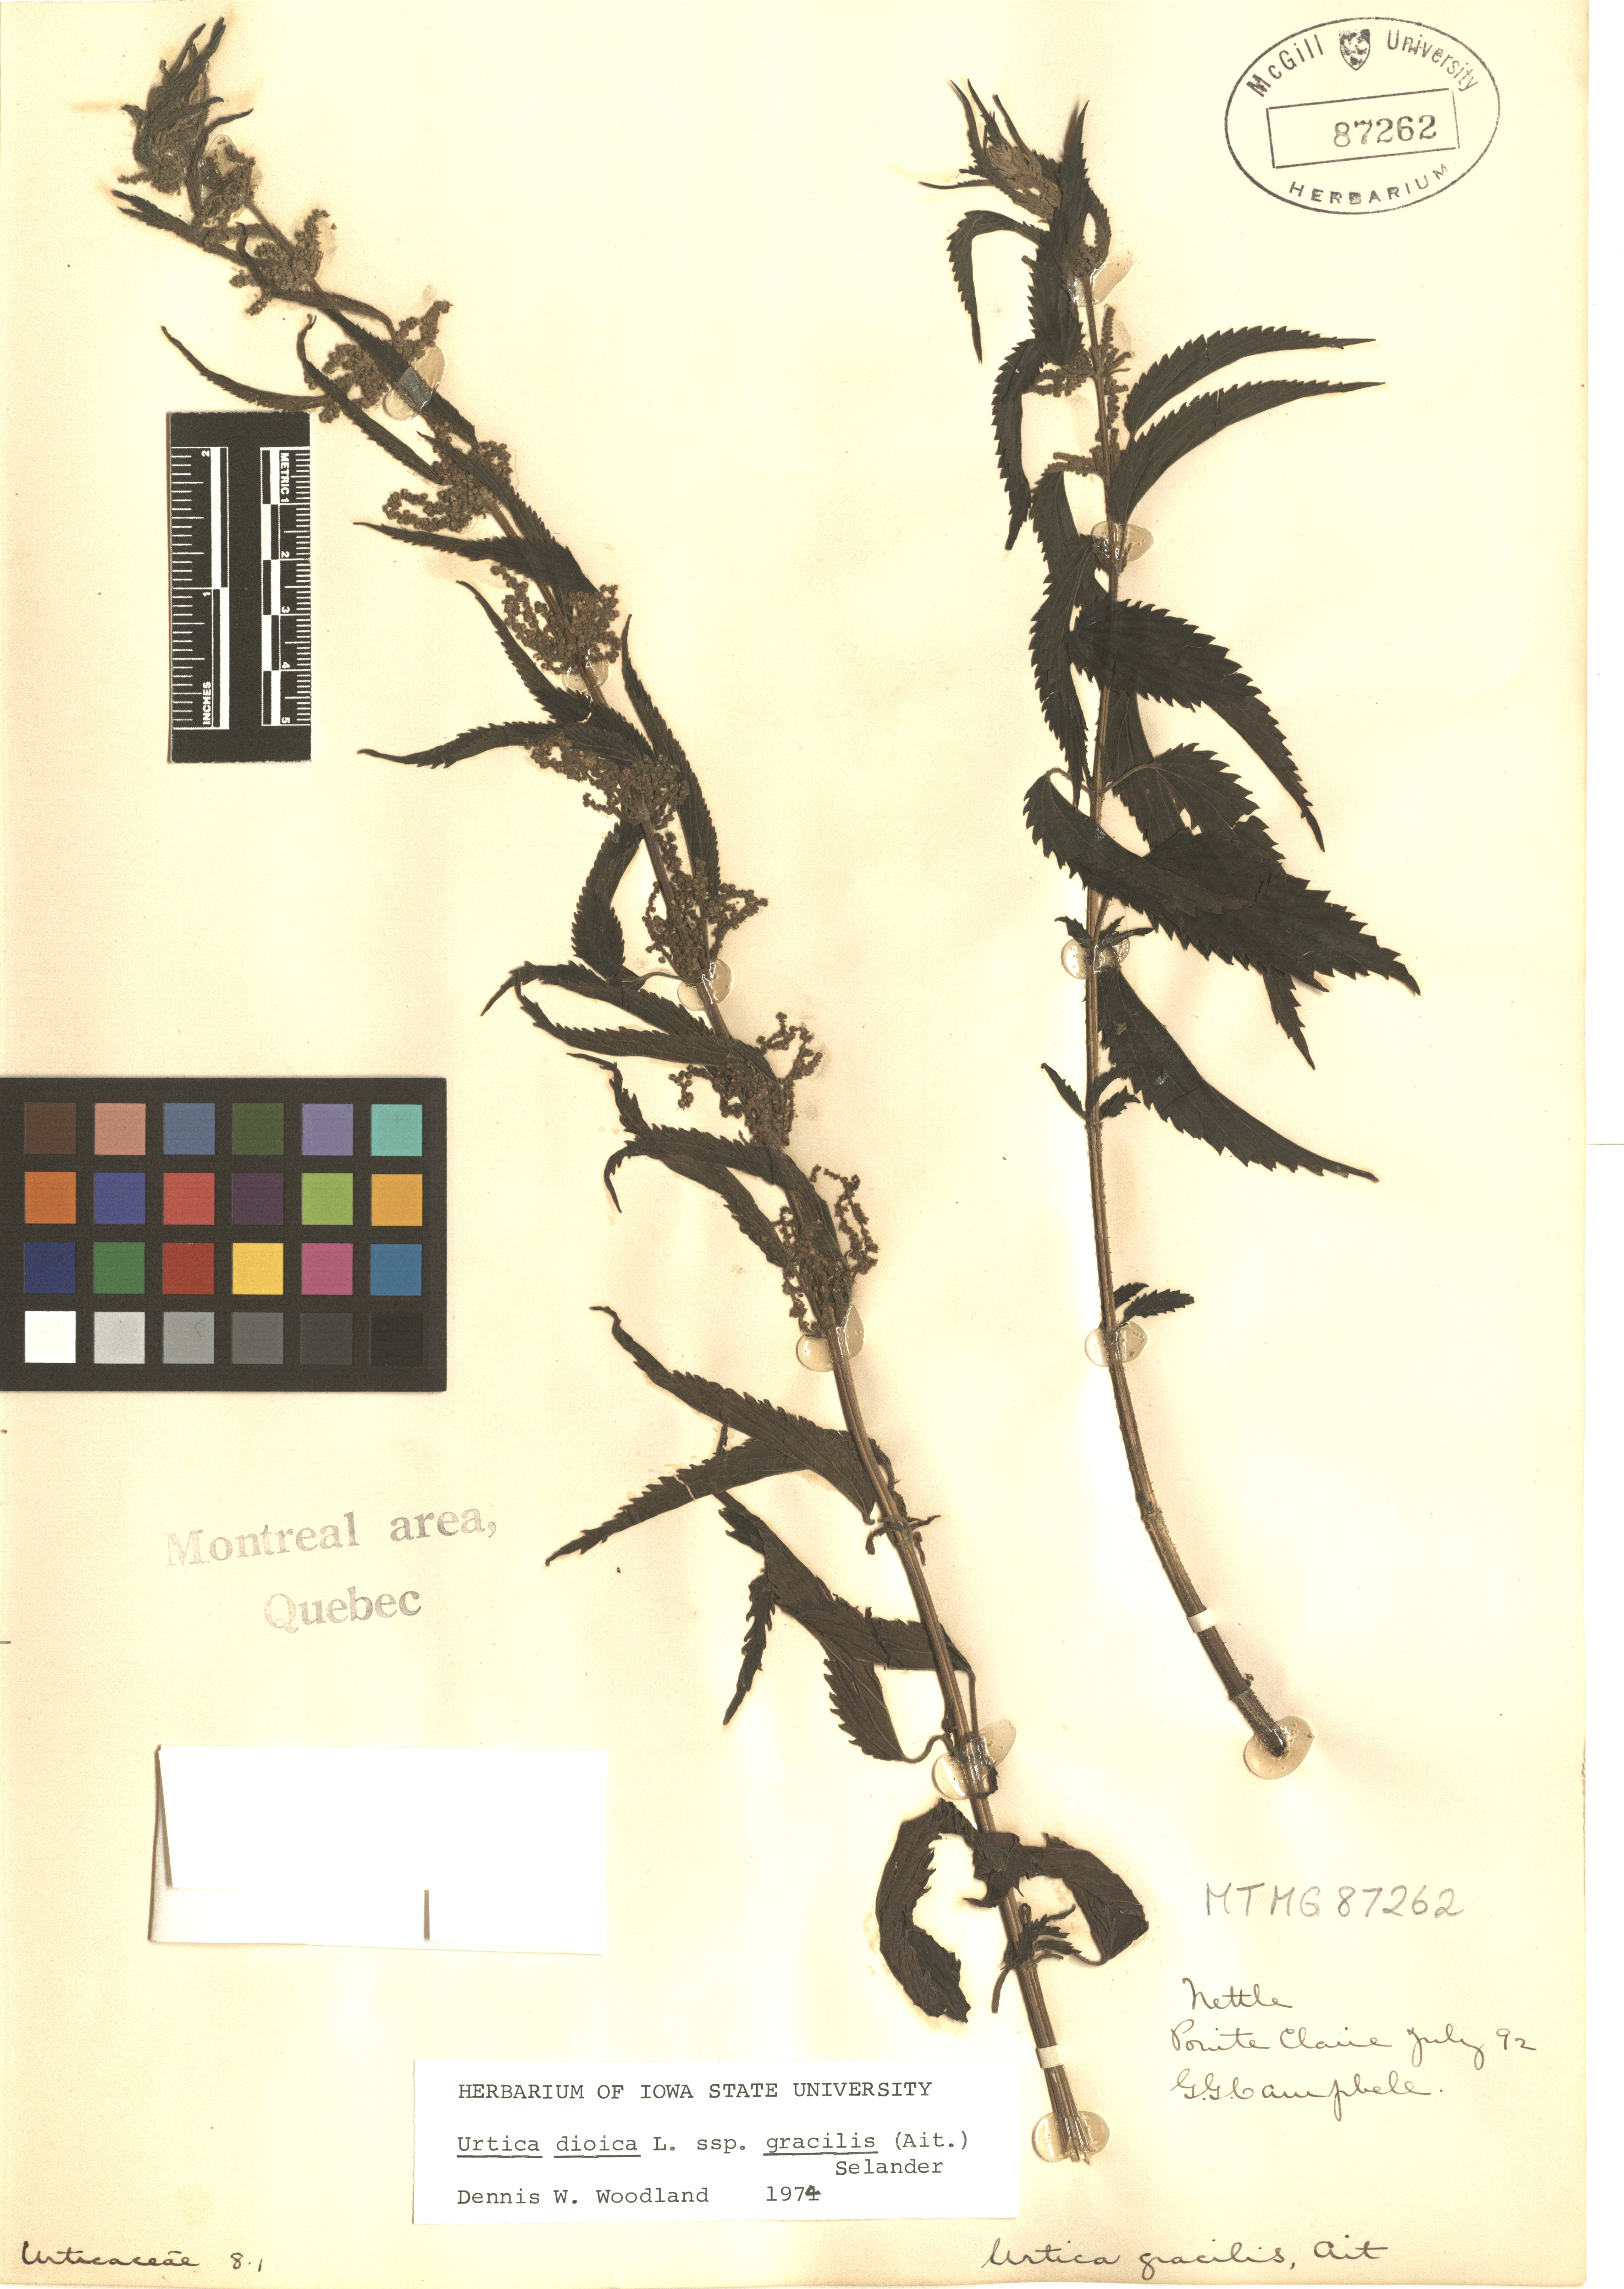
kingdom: Plantae
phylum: Tracheophyta
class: Magnoliopsida
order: Rosales
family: Urticaceae
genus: Urtica
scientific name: Urtica gracilis
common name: Slender stinging nettle
